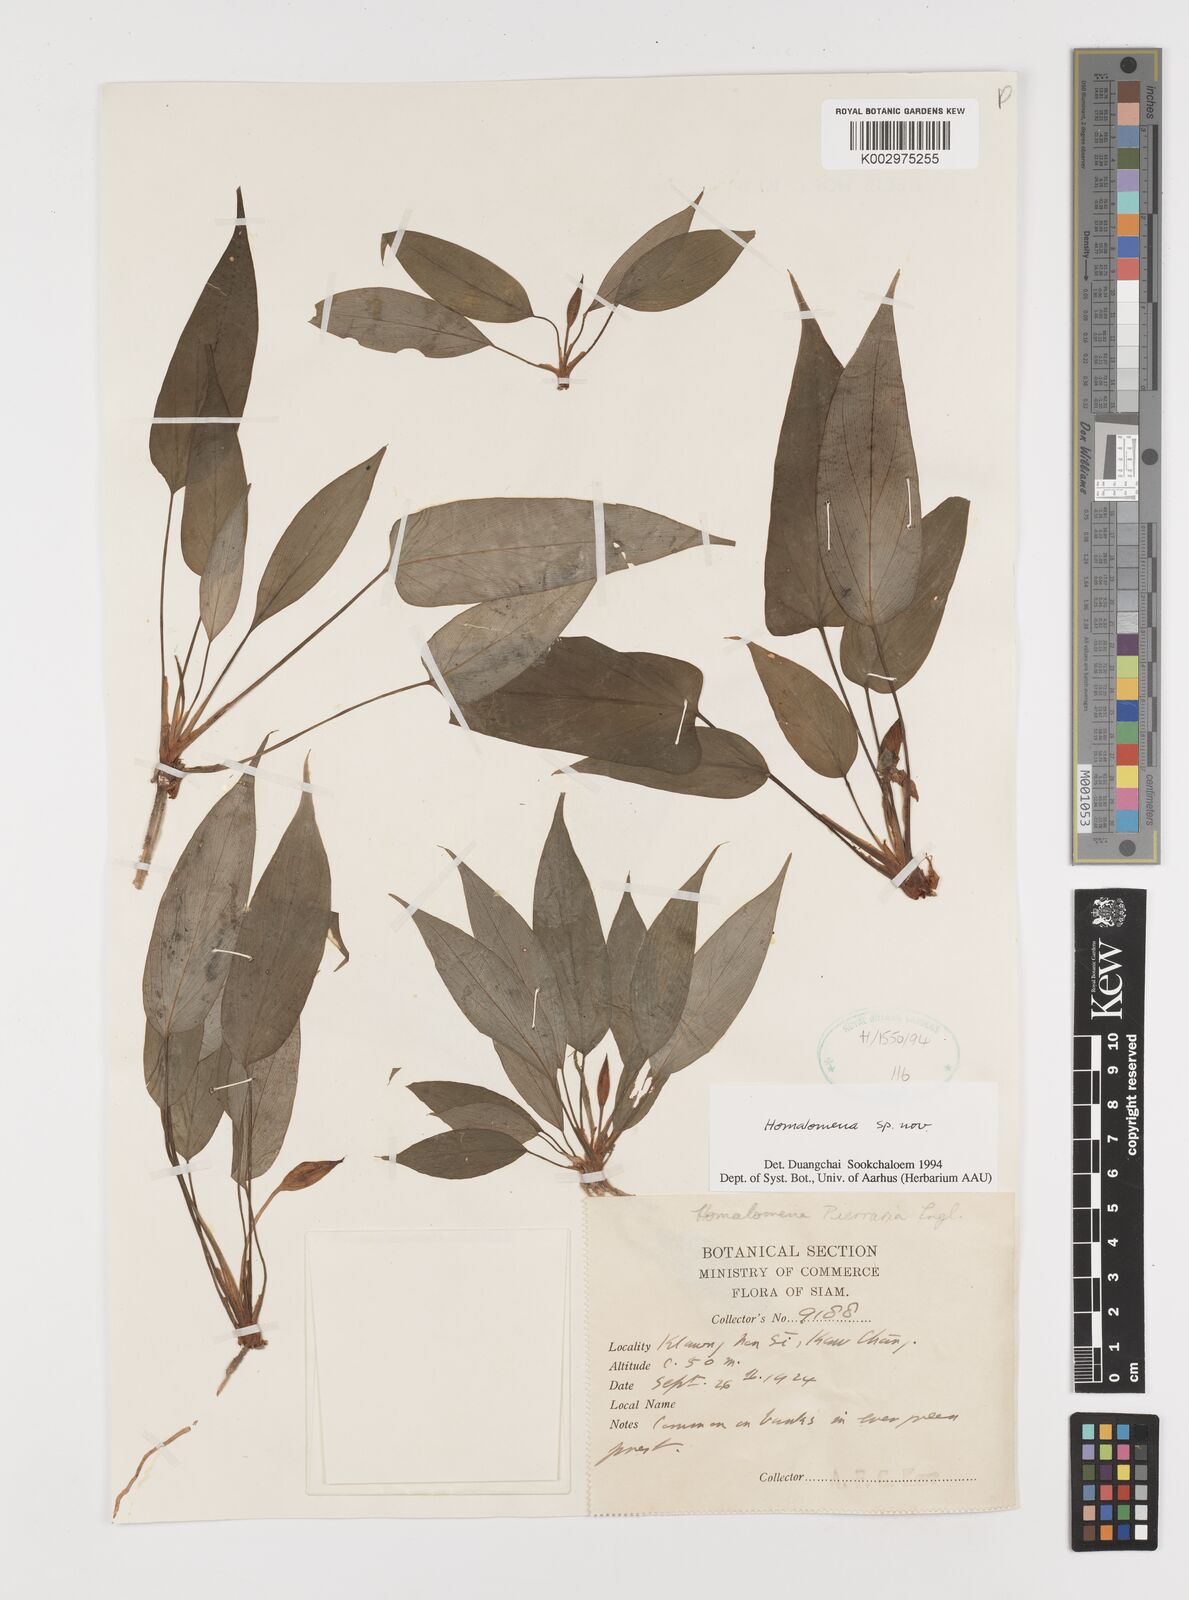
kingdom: Plantae
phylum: Tracheophyta
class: Liliopsida
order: Alismatales
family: Araceae
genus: Homalomena
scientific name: Homalomena
